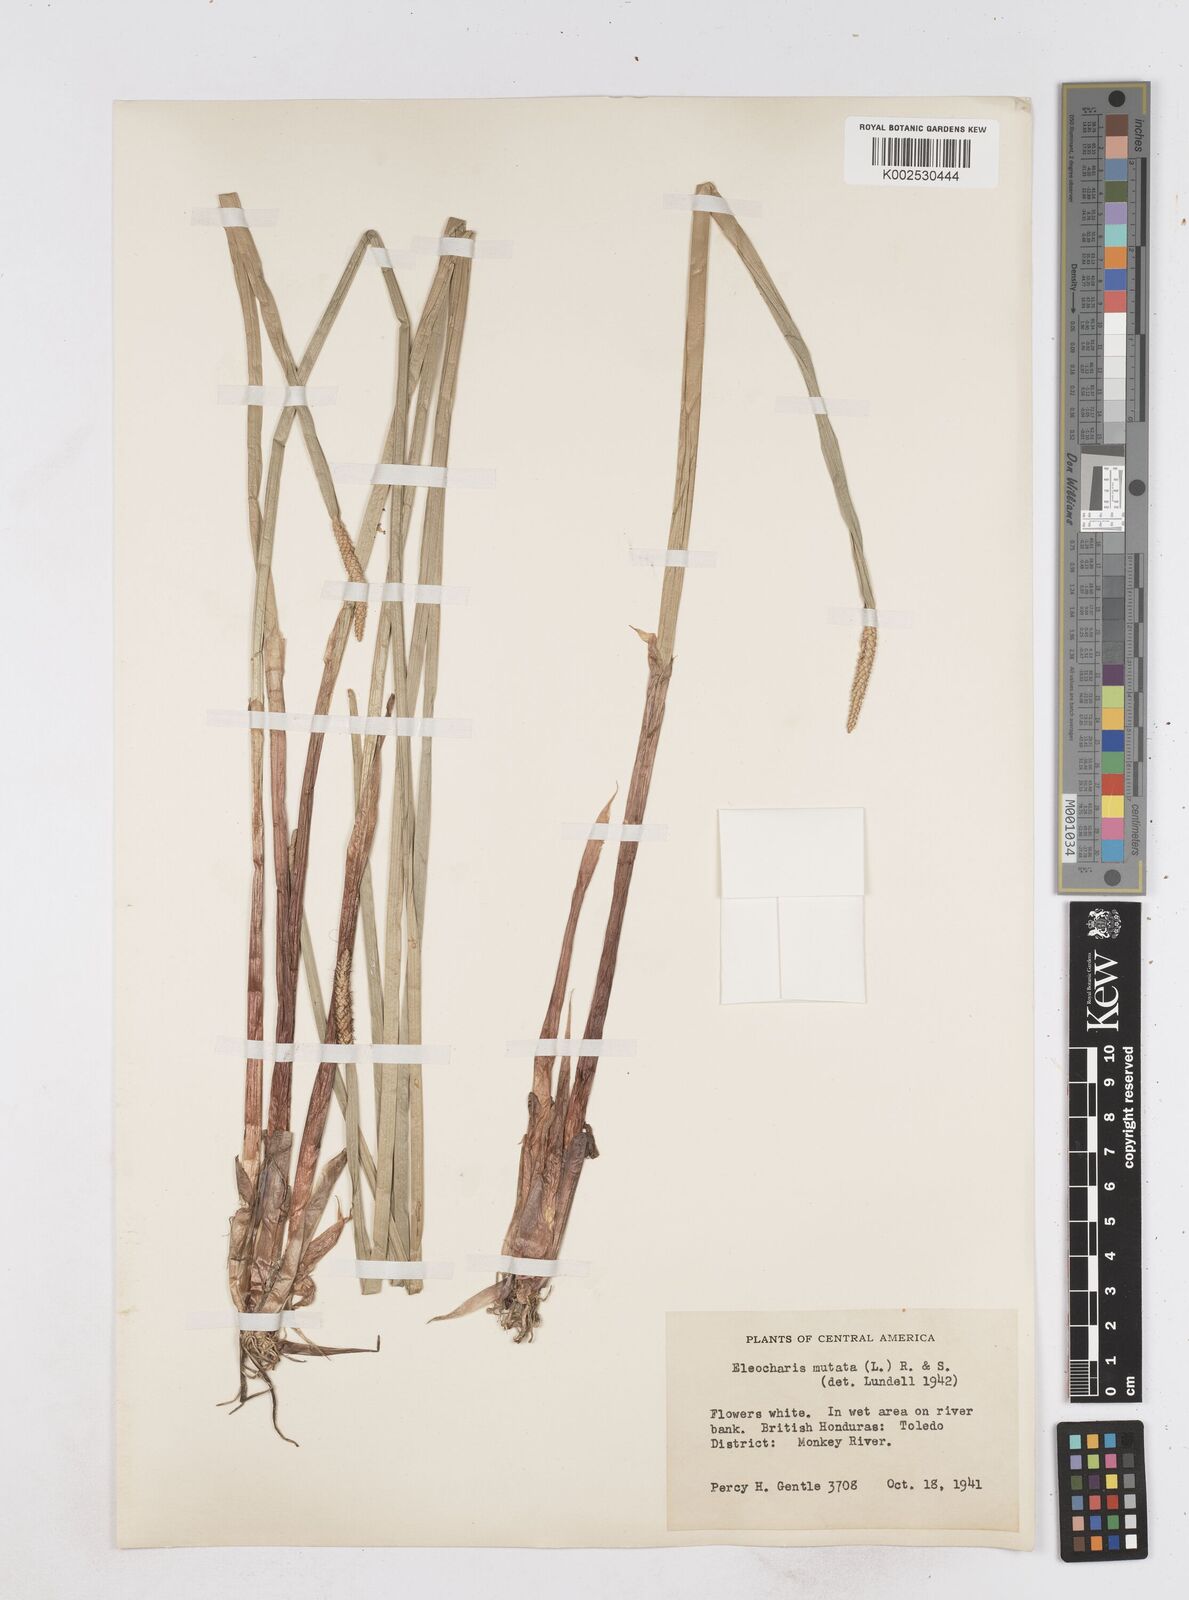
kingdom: Plantae
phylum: Tracheophyta
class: Liliopsida
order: Poales
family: Cyperaceae
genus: Eleocharis
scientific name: Eleocharis mutata
